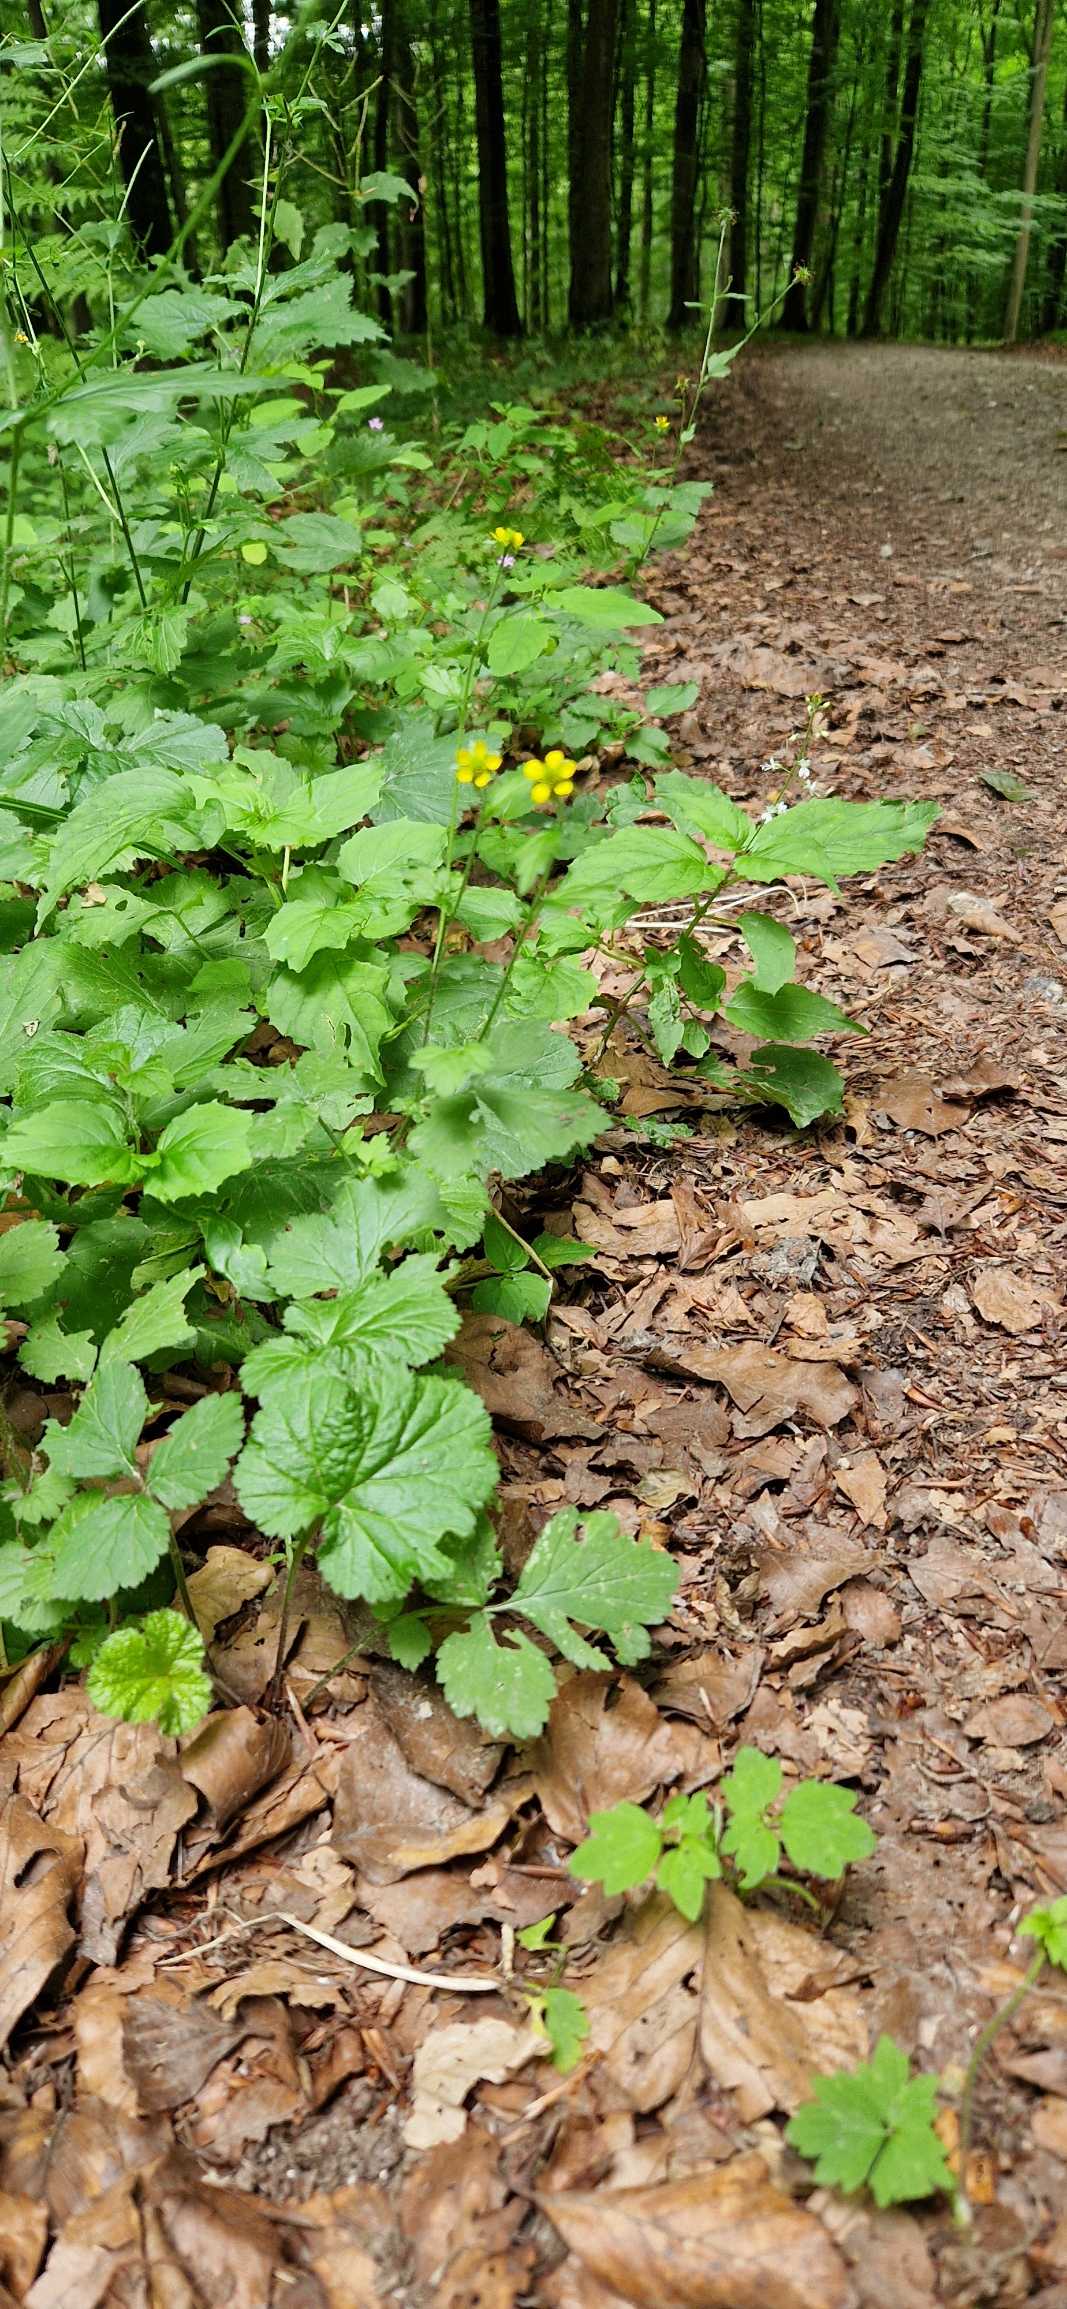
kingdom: Plantae
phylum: Tracheophyta
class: Magnoliopsida
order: Rosales
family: Rosaceae
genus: Geum
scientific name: Geum urbanum
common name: Feber-nellikerod
